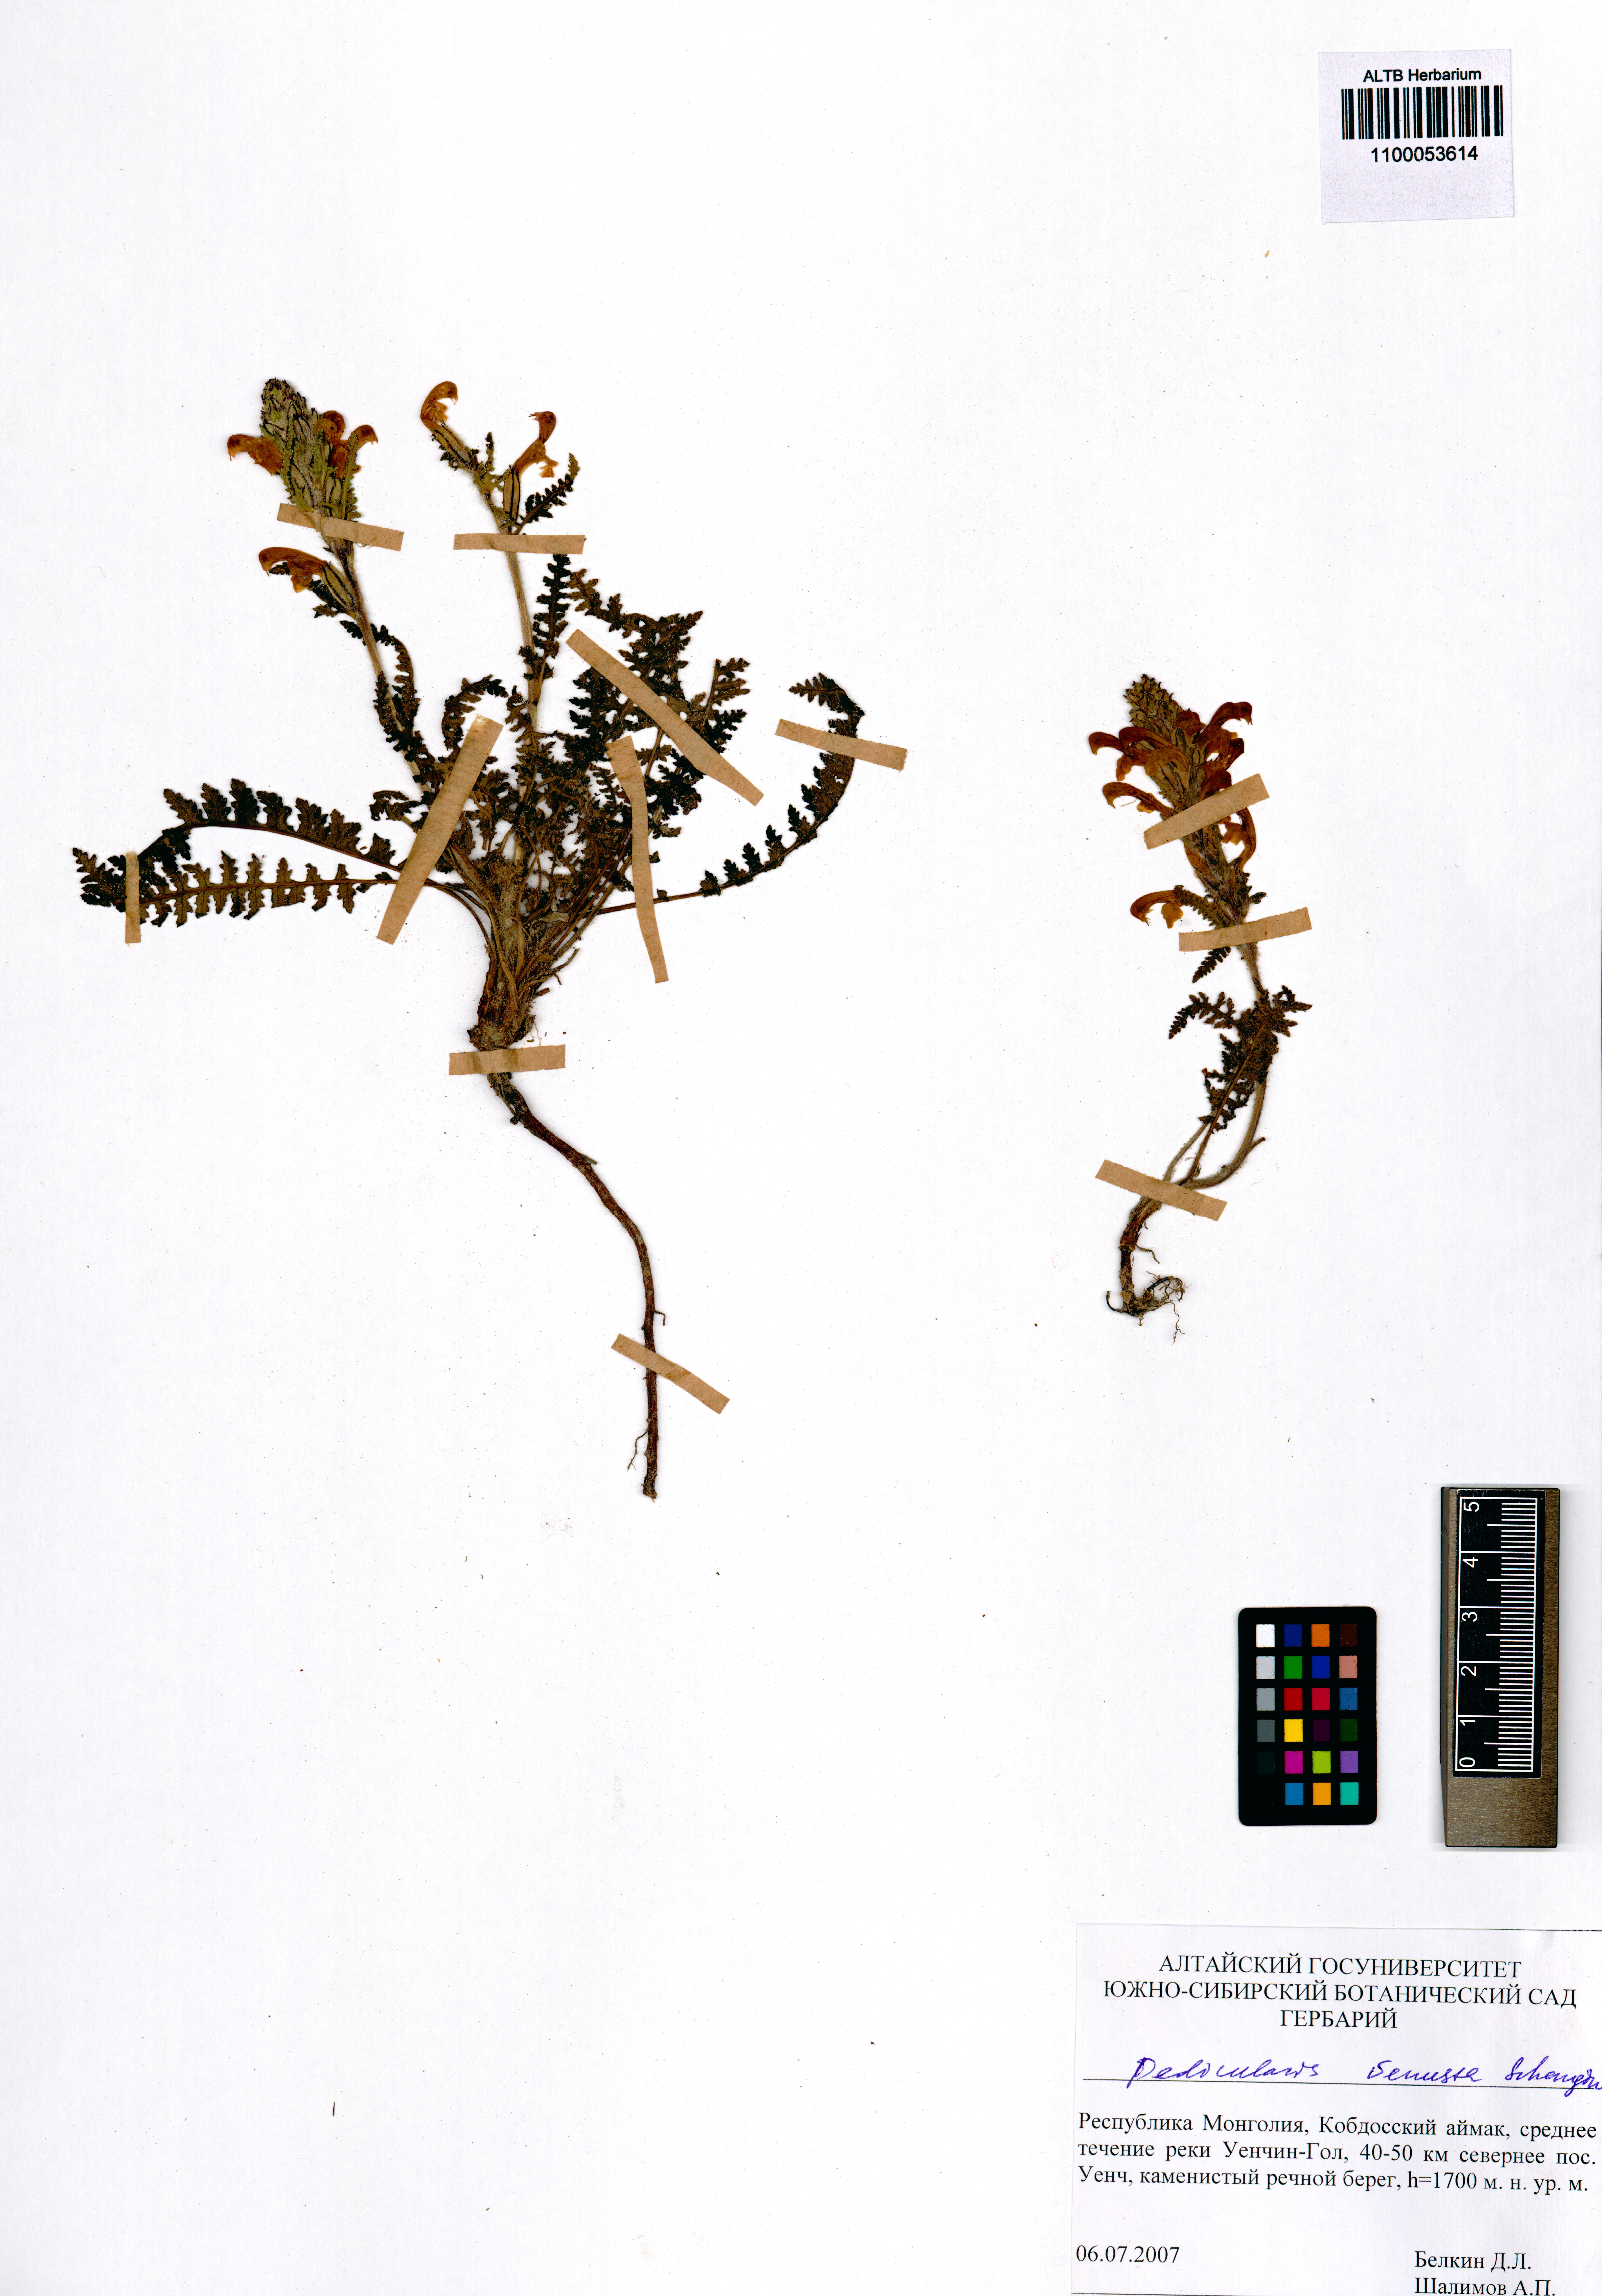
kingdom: Plantae
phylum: Tracheophyta
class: Magnoliopsida
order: Lamiales
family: Orobanchaceae
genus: Pedicularis
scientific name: Pedicularis venusta
